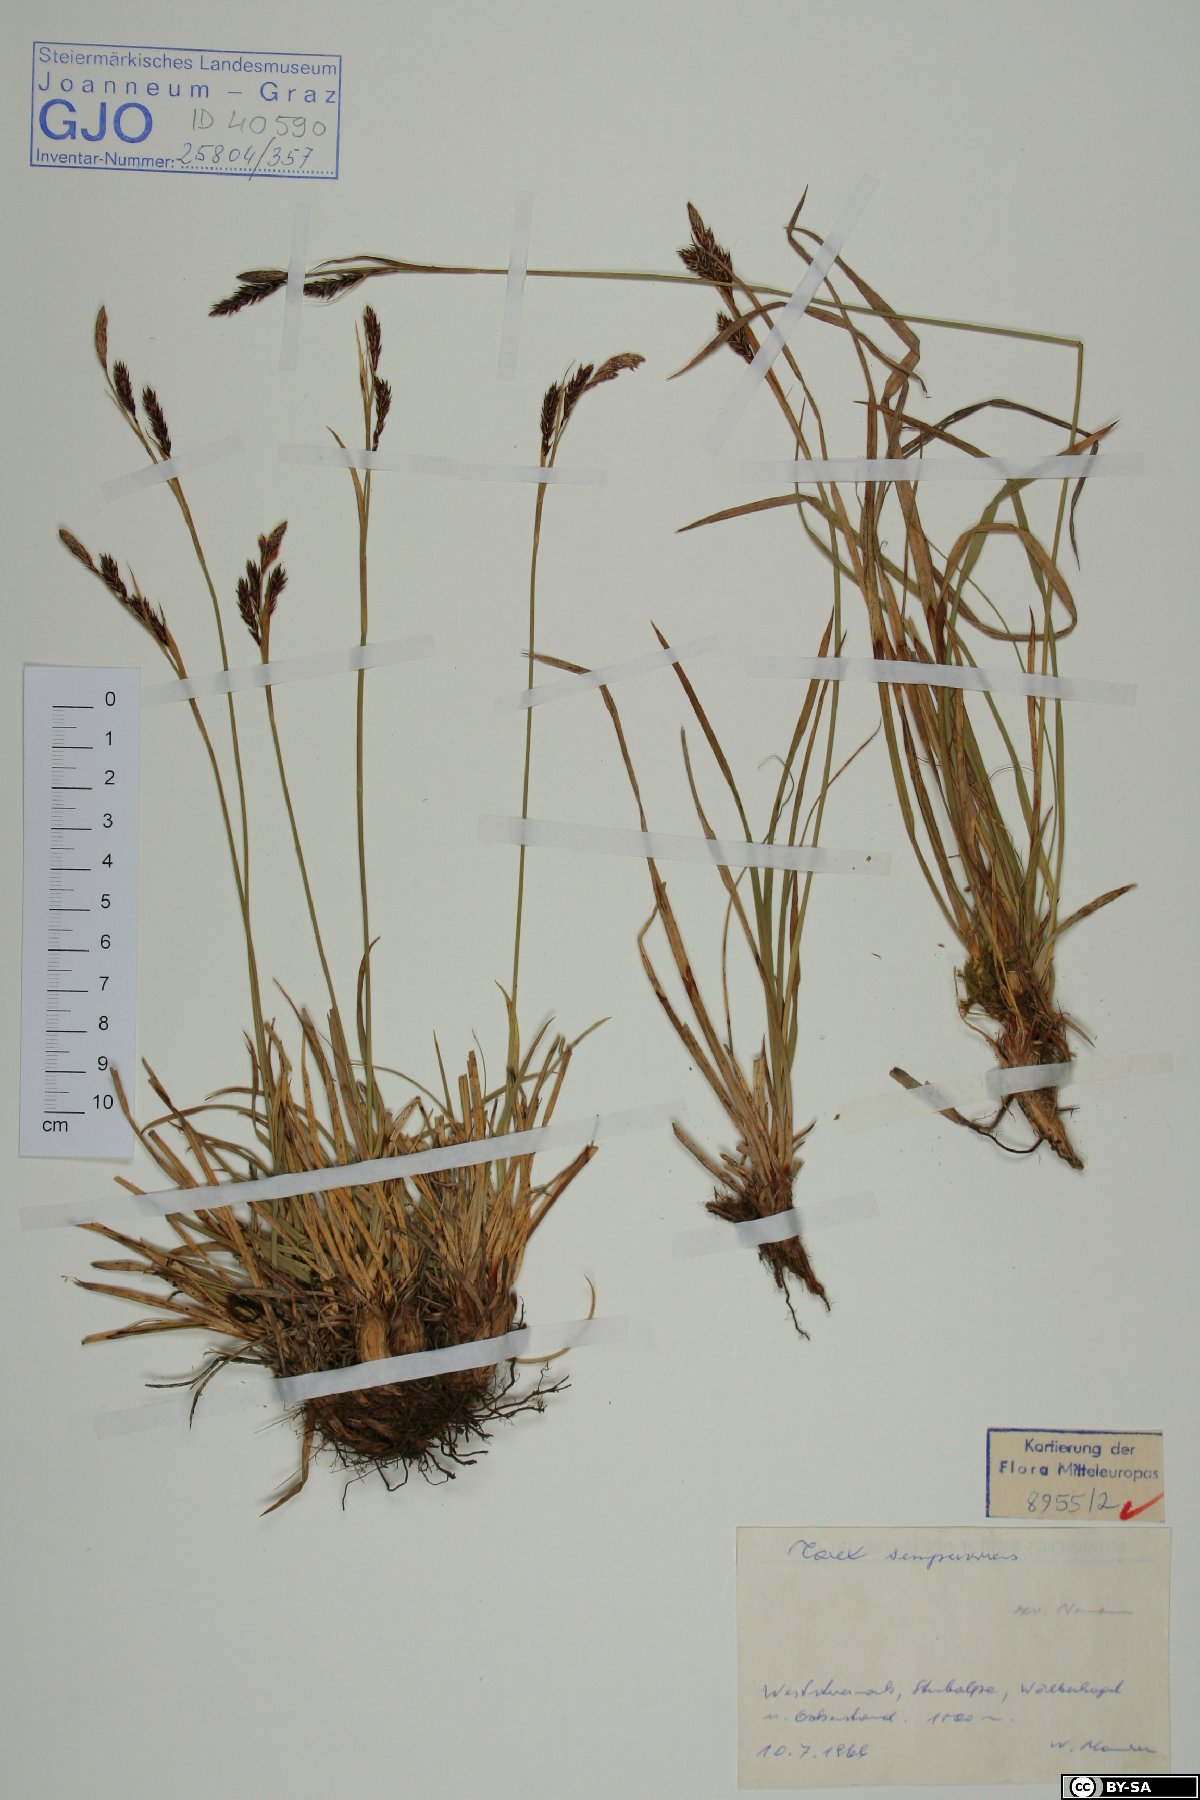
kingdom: Plantae
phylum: Tracheophyta
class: Liliopsida
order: Poales
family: Cyperaceae
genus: Carex
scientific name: Carex sempervirens
